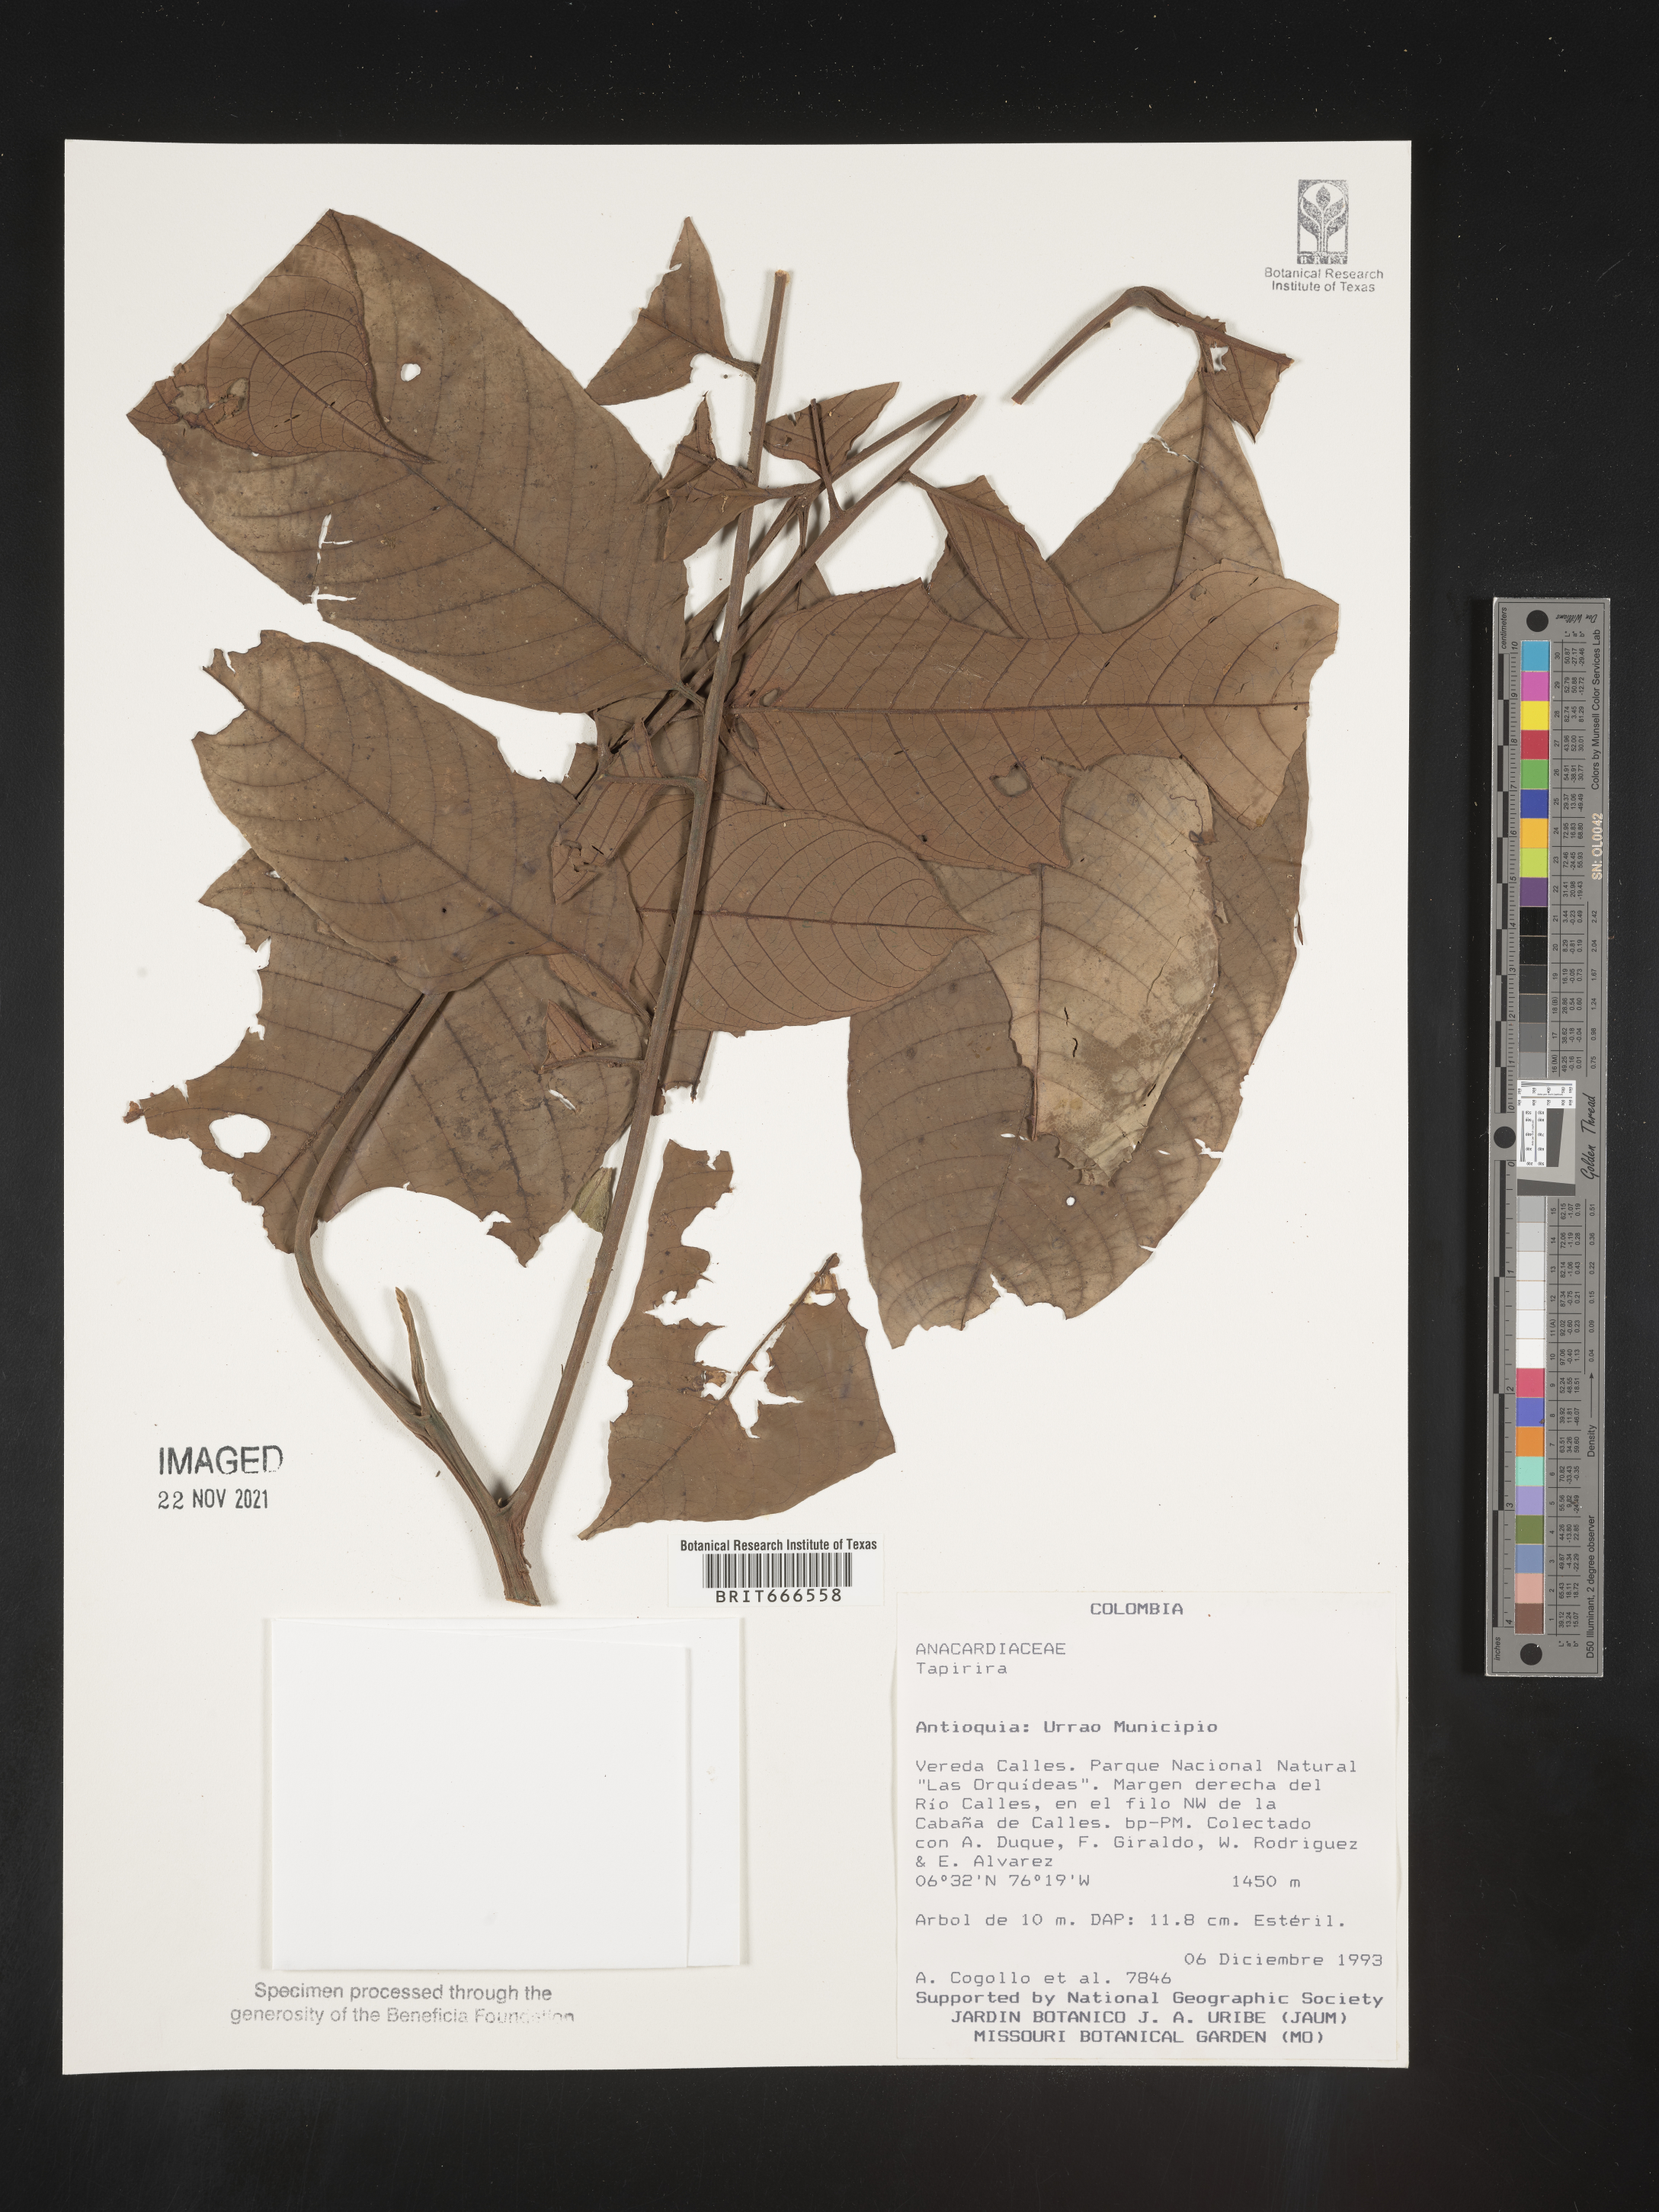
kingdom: Plantae
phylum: Tracheophyta
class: Magnoliopsida
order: Sapindales
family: Anacardiaceae
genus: Tapirira
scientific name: Tapirira
